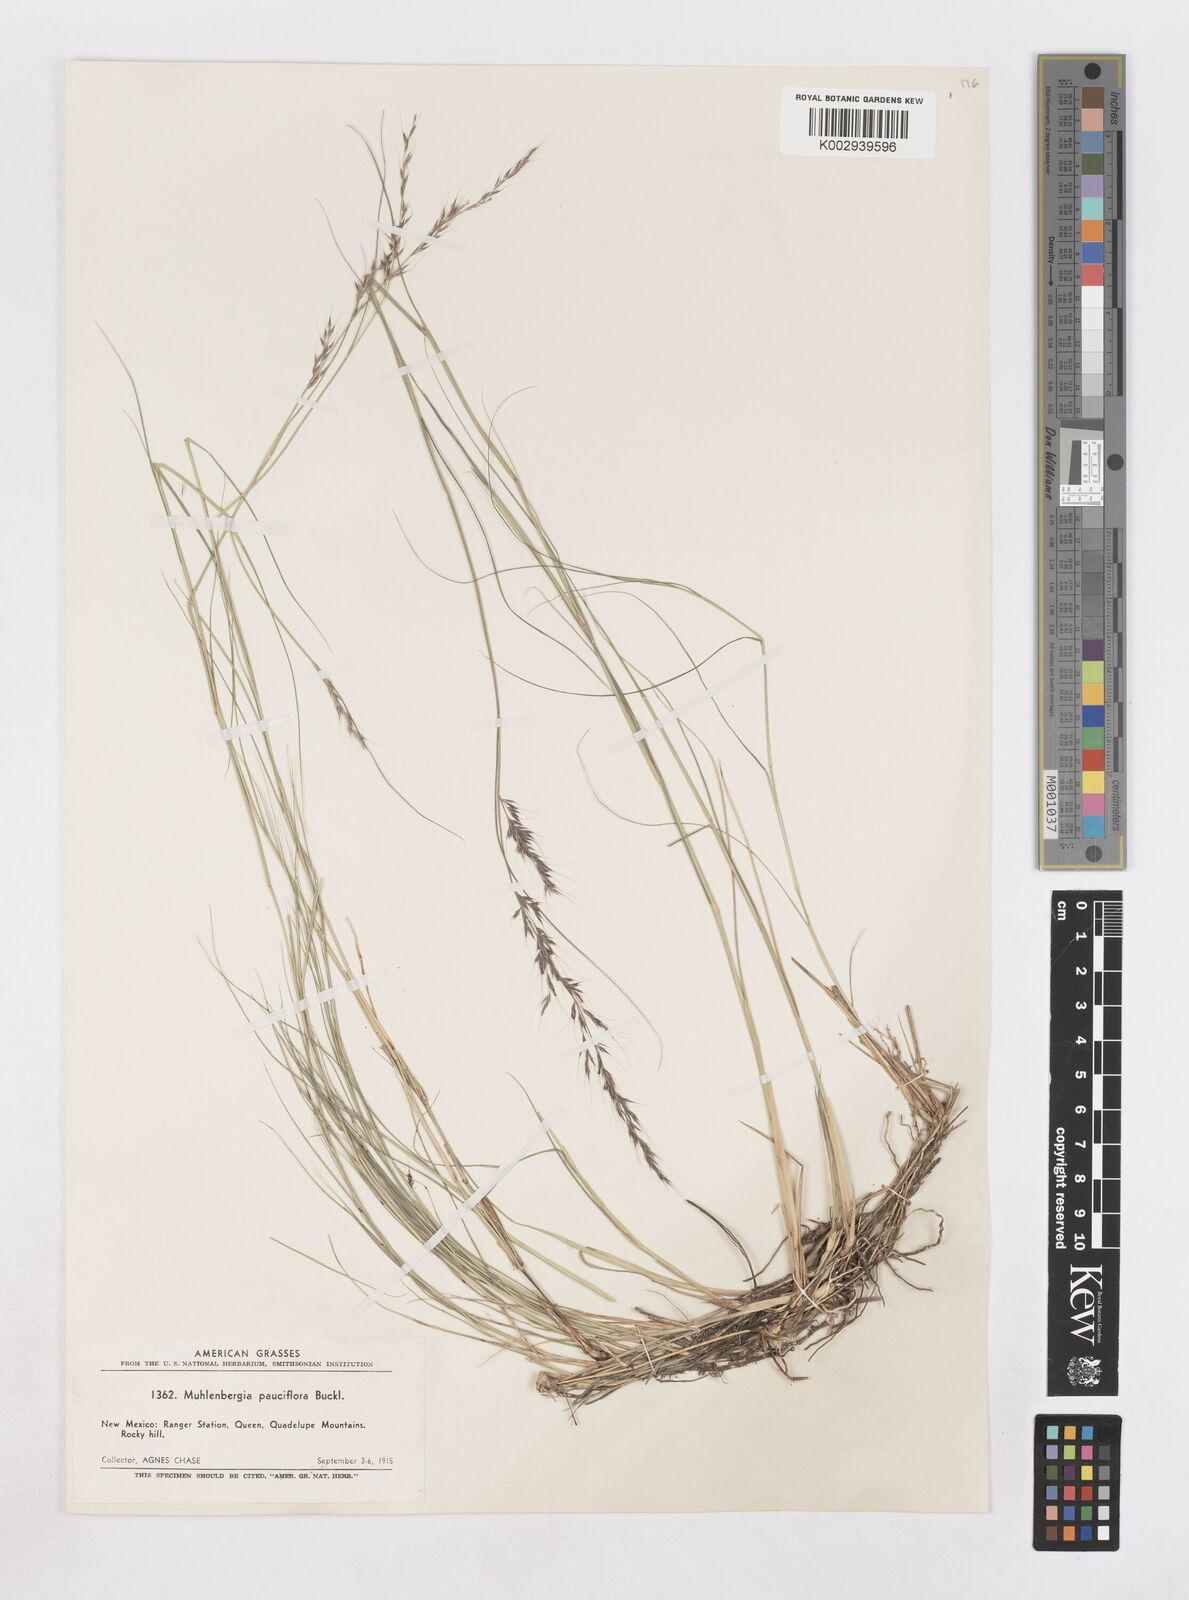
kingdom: Plantae
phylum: Tracheophyta
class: Liliopsida
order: Poales
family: Poaceae
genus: Muhlenbergia
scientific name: Muhlenbergia pauciflora
